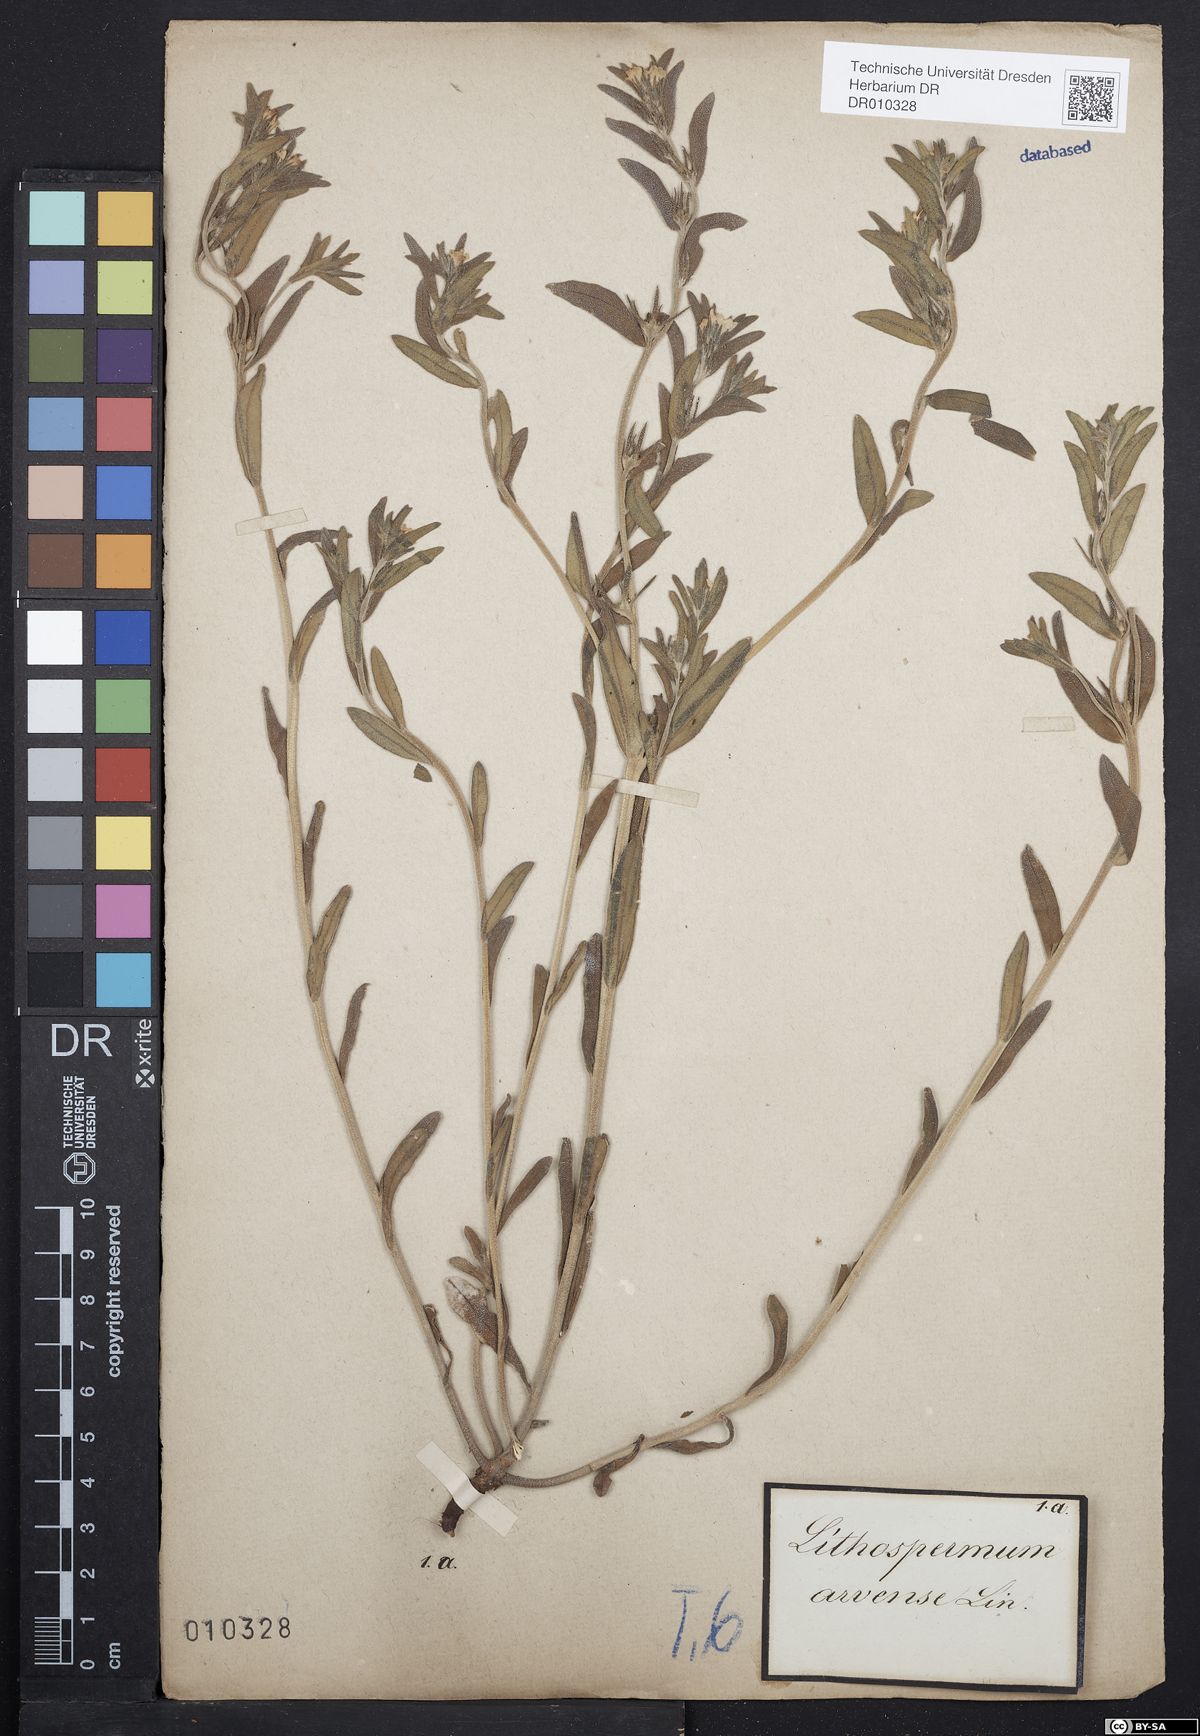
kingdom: Plantae
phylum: Tracheophyta
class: Magnoliopsida
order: Boraginales
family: Boraginaceae
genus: Buglossoides
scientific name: Buglossoides arvensis
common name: Corn gromwell
